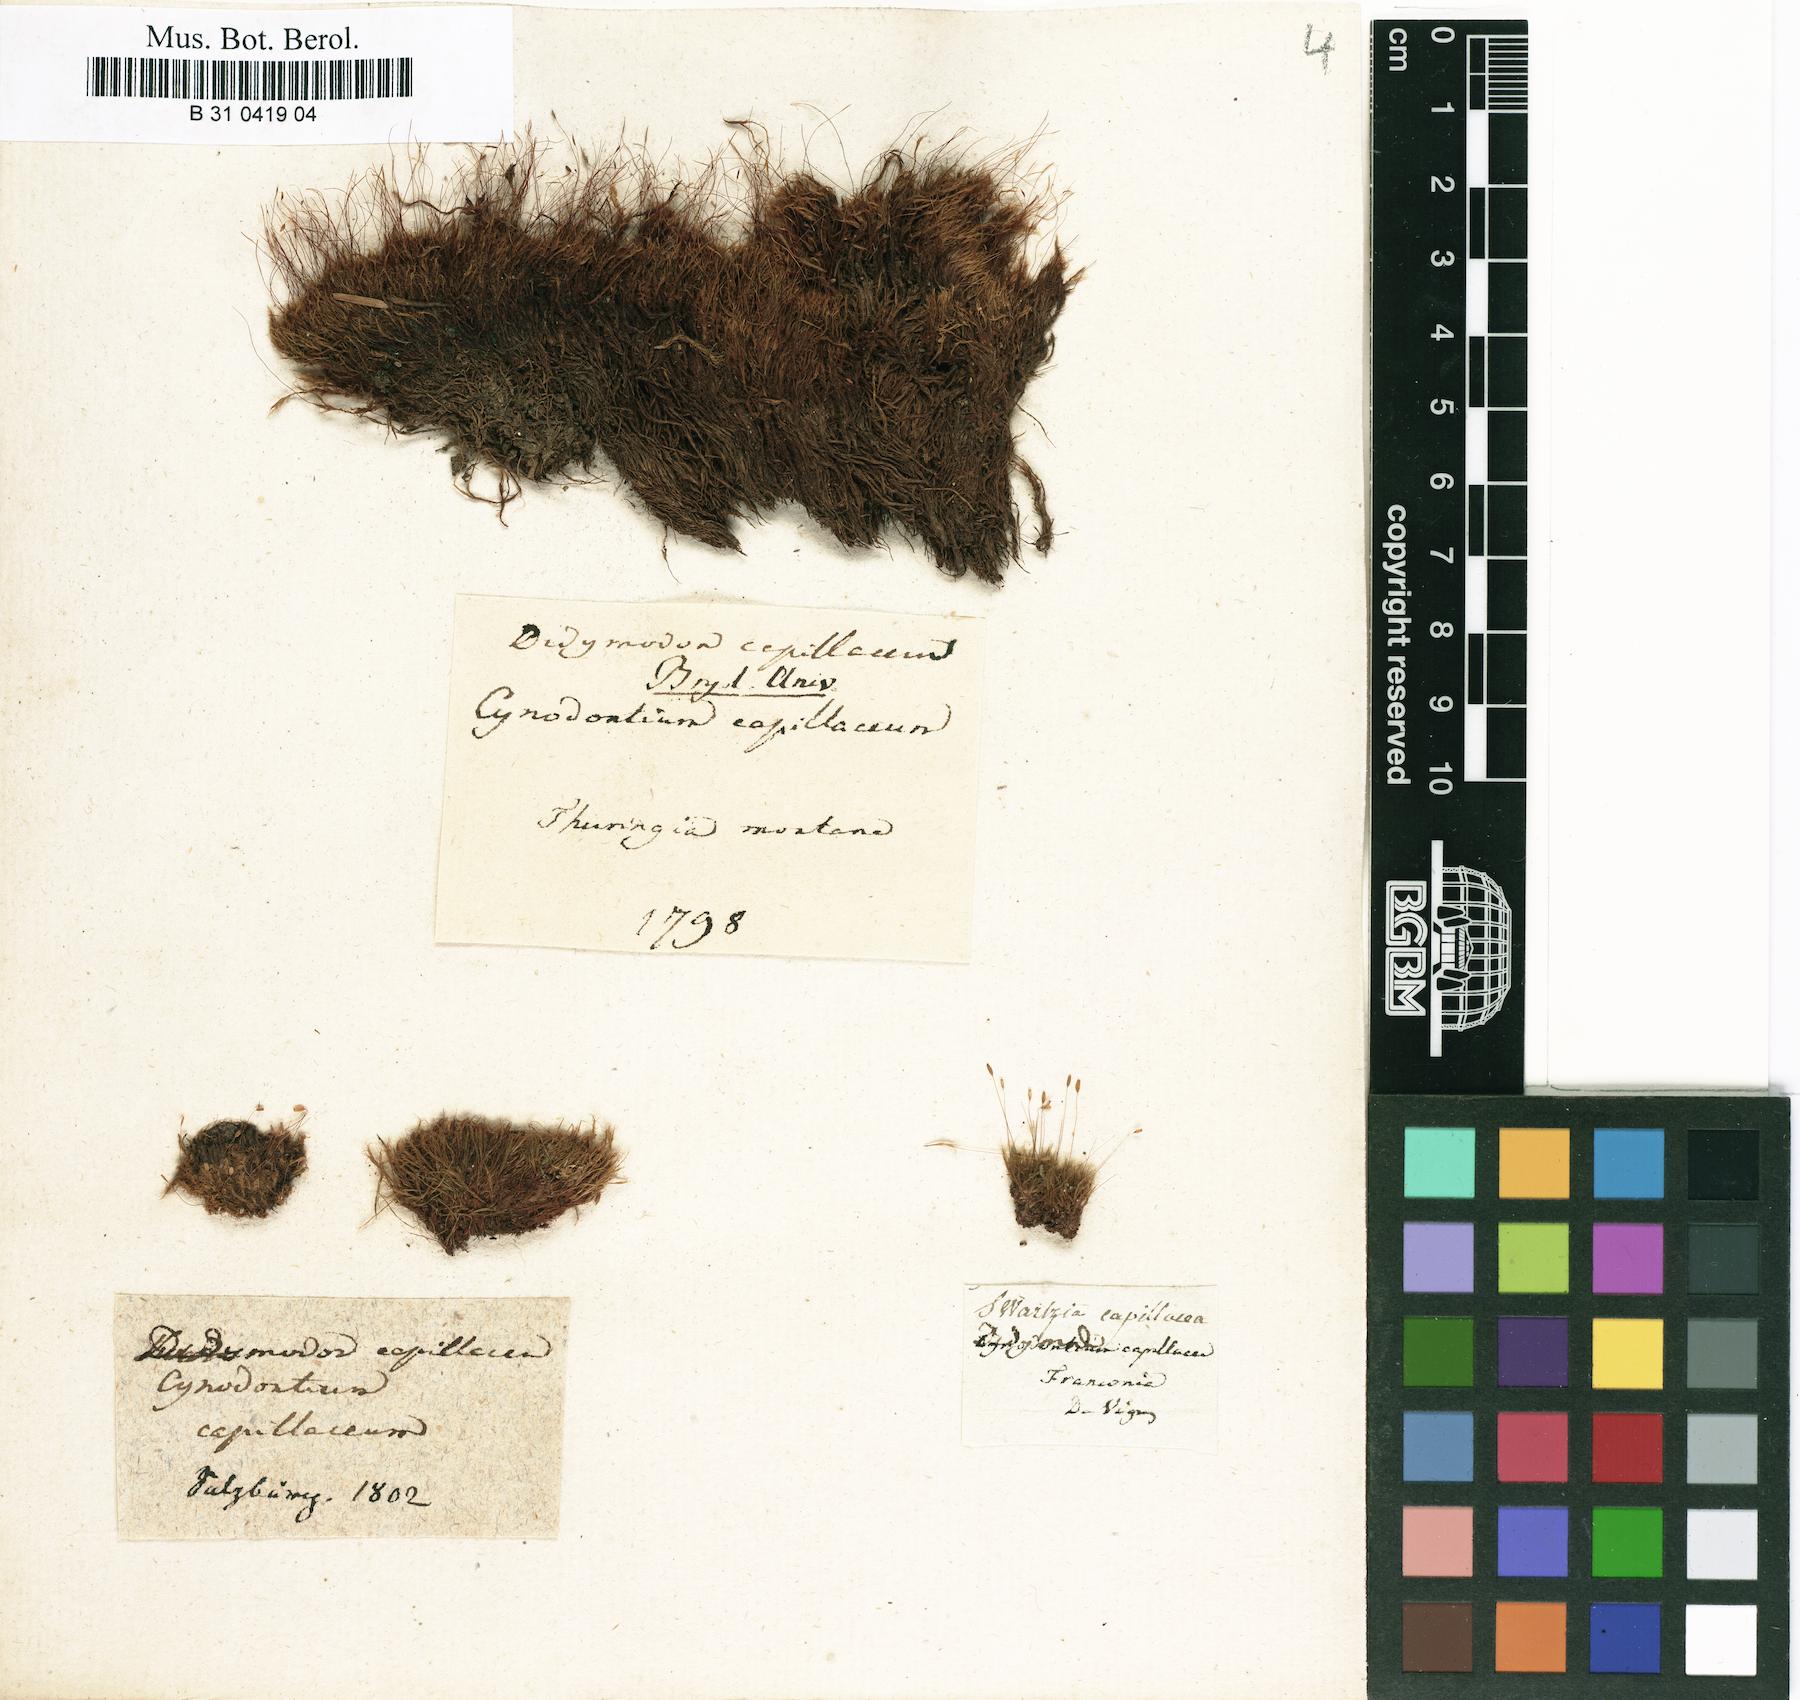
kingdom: Plantae
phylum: Bryophyta
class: Bryopsida
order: Scouleriales
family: Distichiaceae
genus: Distichium
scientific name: Distichium capillaceum
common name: Erect-fruited iris moss
